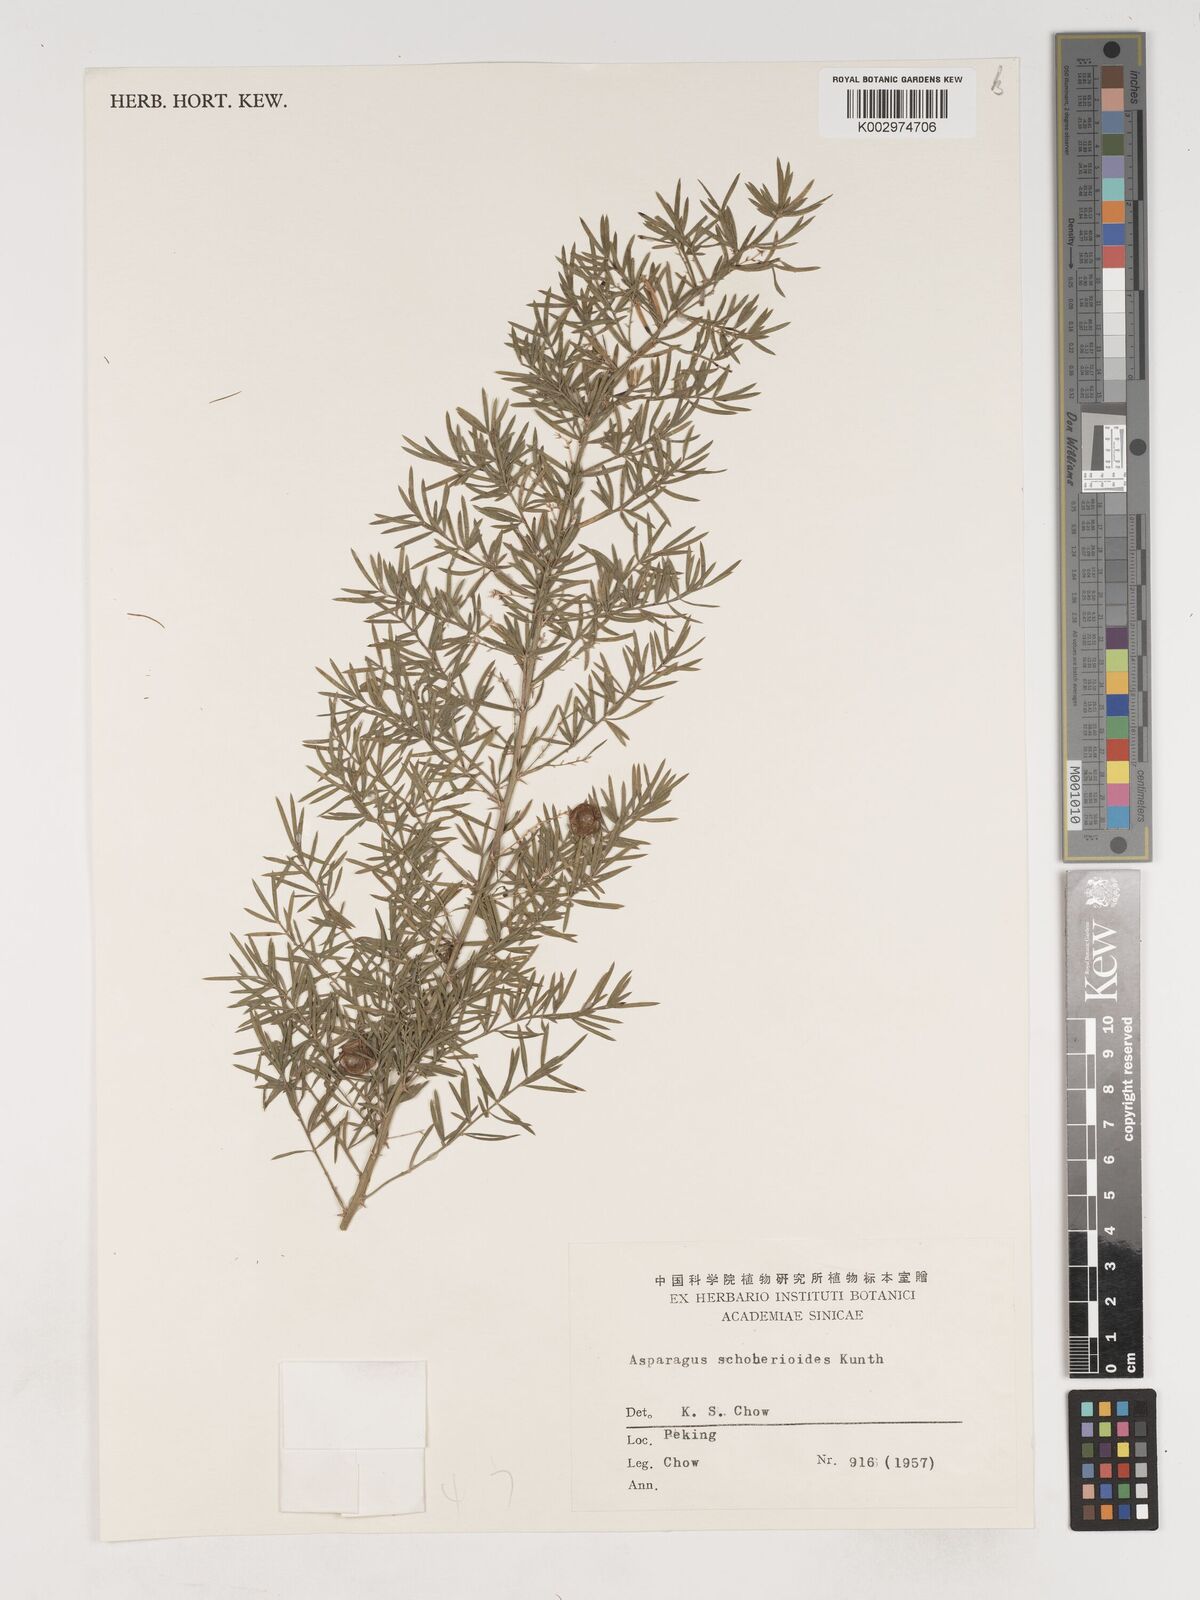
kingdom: Plantae
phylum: Tracheophyta
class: Liliopsida
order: Asparagales
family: Asparagaceae
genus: Asparagus
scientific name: Asparagus schoberioides
